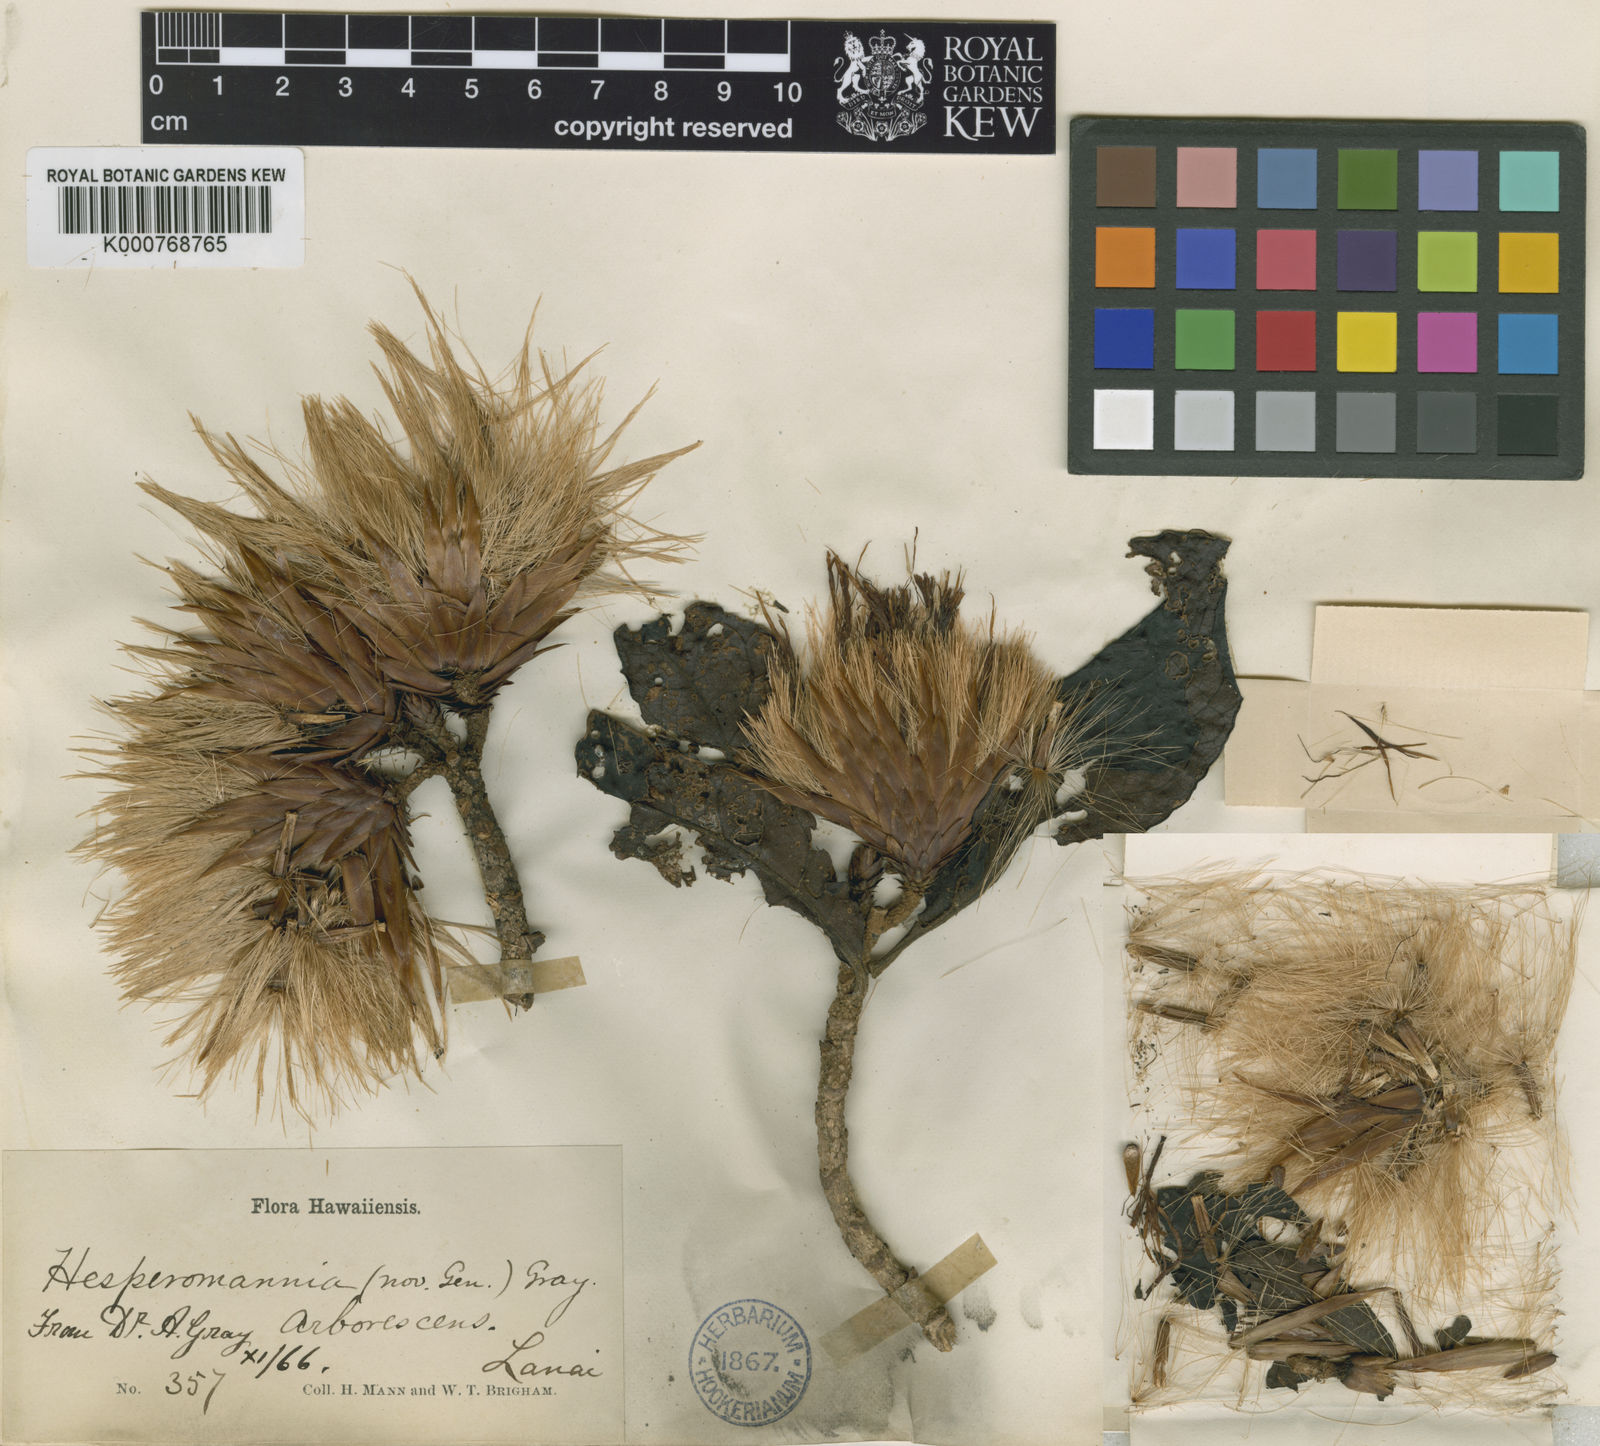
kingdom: Plantae
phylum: Tracheophyta
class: Magnoliopsida
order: Asterales
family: Asteraceae
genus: Hesperomannia
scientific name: Hesperomannia
